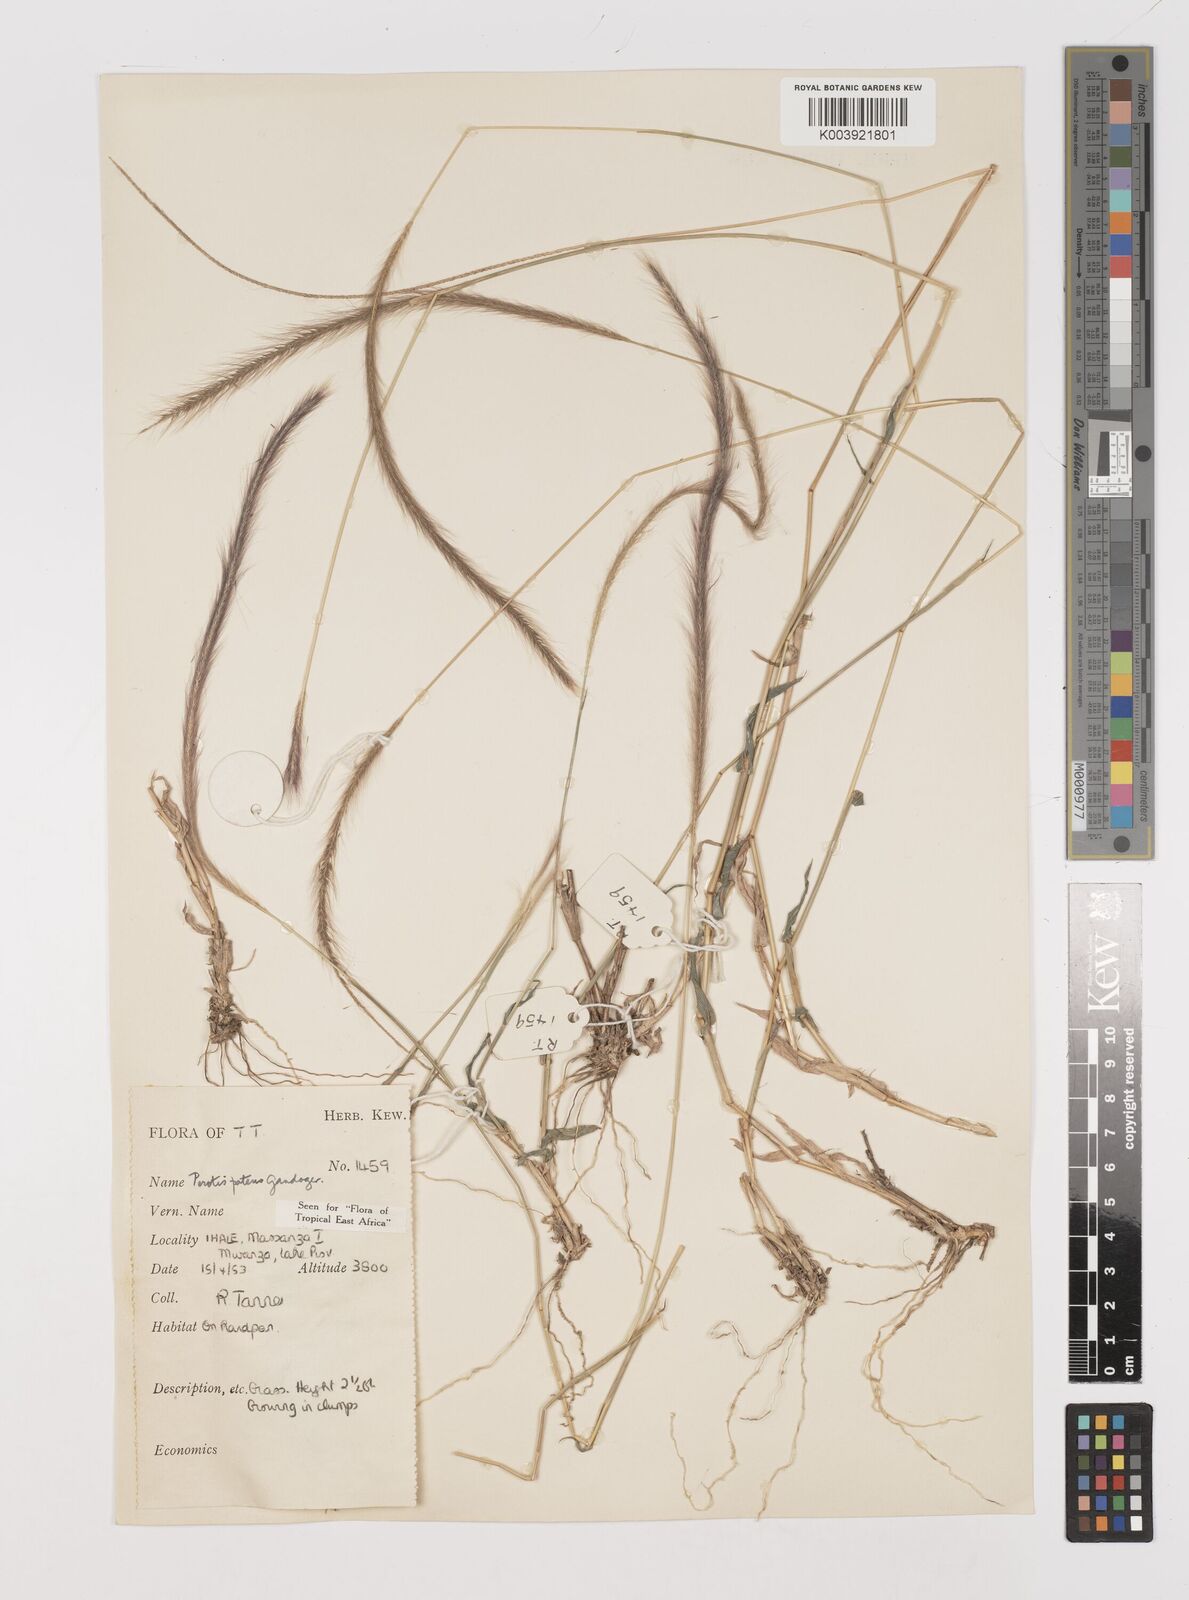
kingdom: Plantae
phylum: Tracheophyta
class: Liliopsida
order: Poales
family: Poaceae
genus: Perotis
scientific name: Perotis patens
